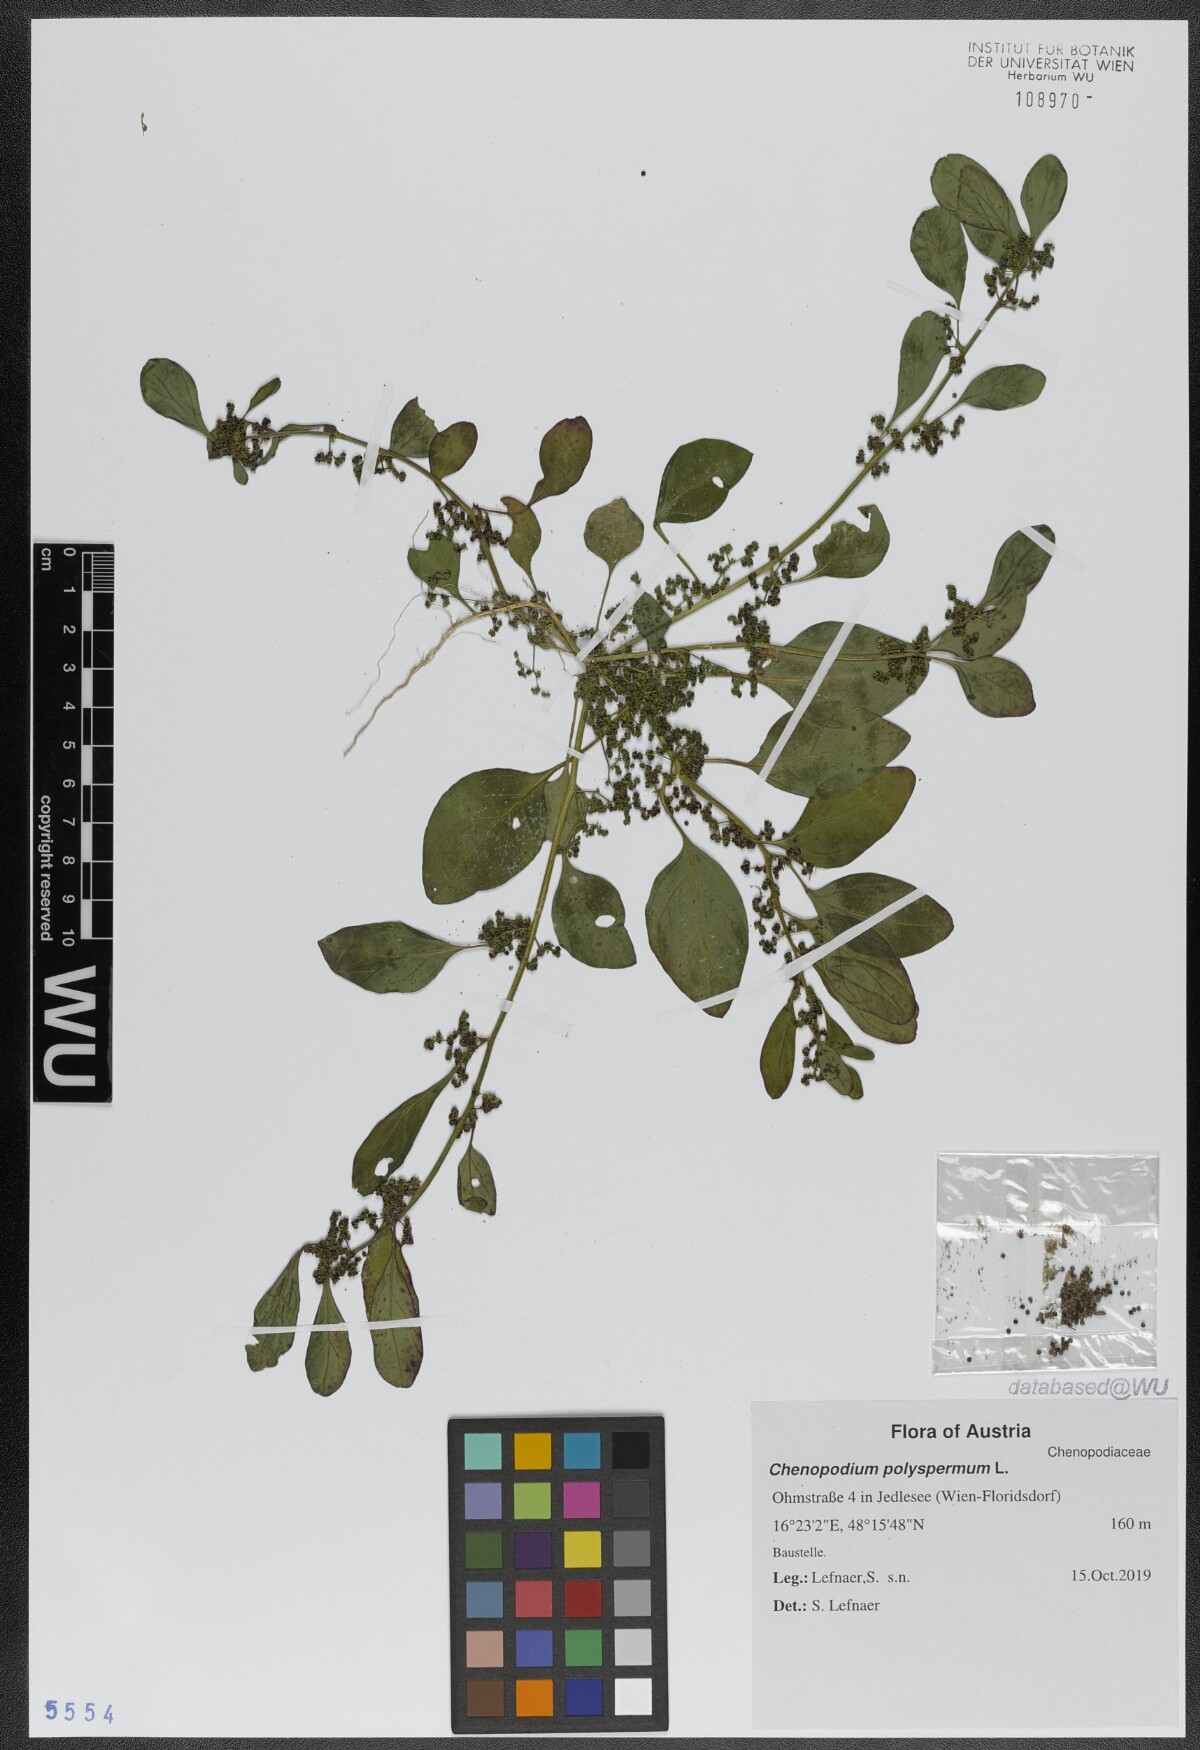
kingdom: Plantae
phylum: Tracheophyta
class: Magnoliopsida
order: Caryophyllales
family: Amaranthaceae
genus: Lipandra
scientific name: Lipandra polysperma
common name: Many-seed goosefoot
